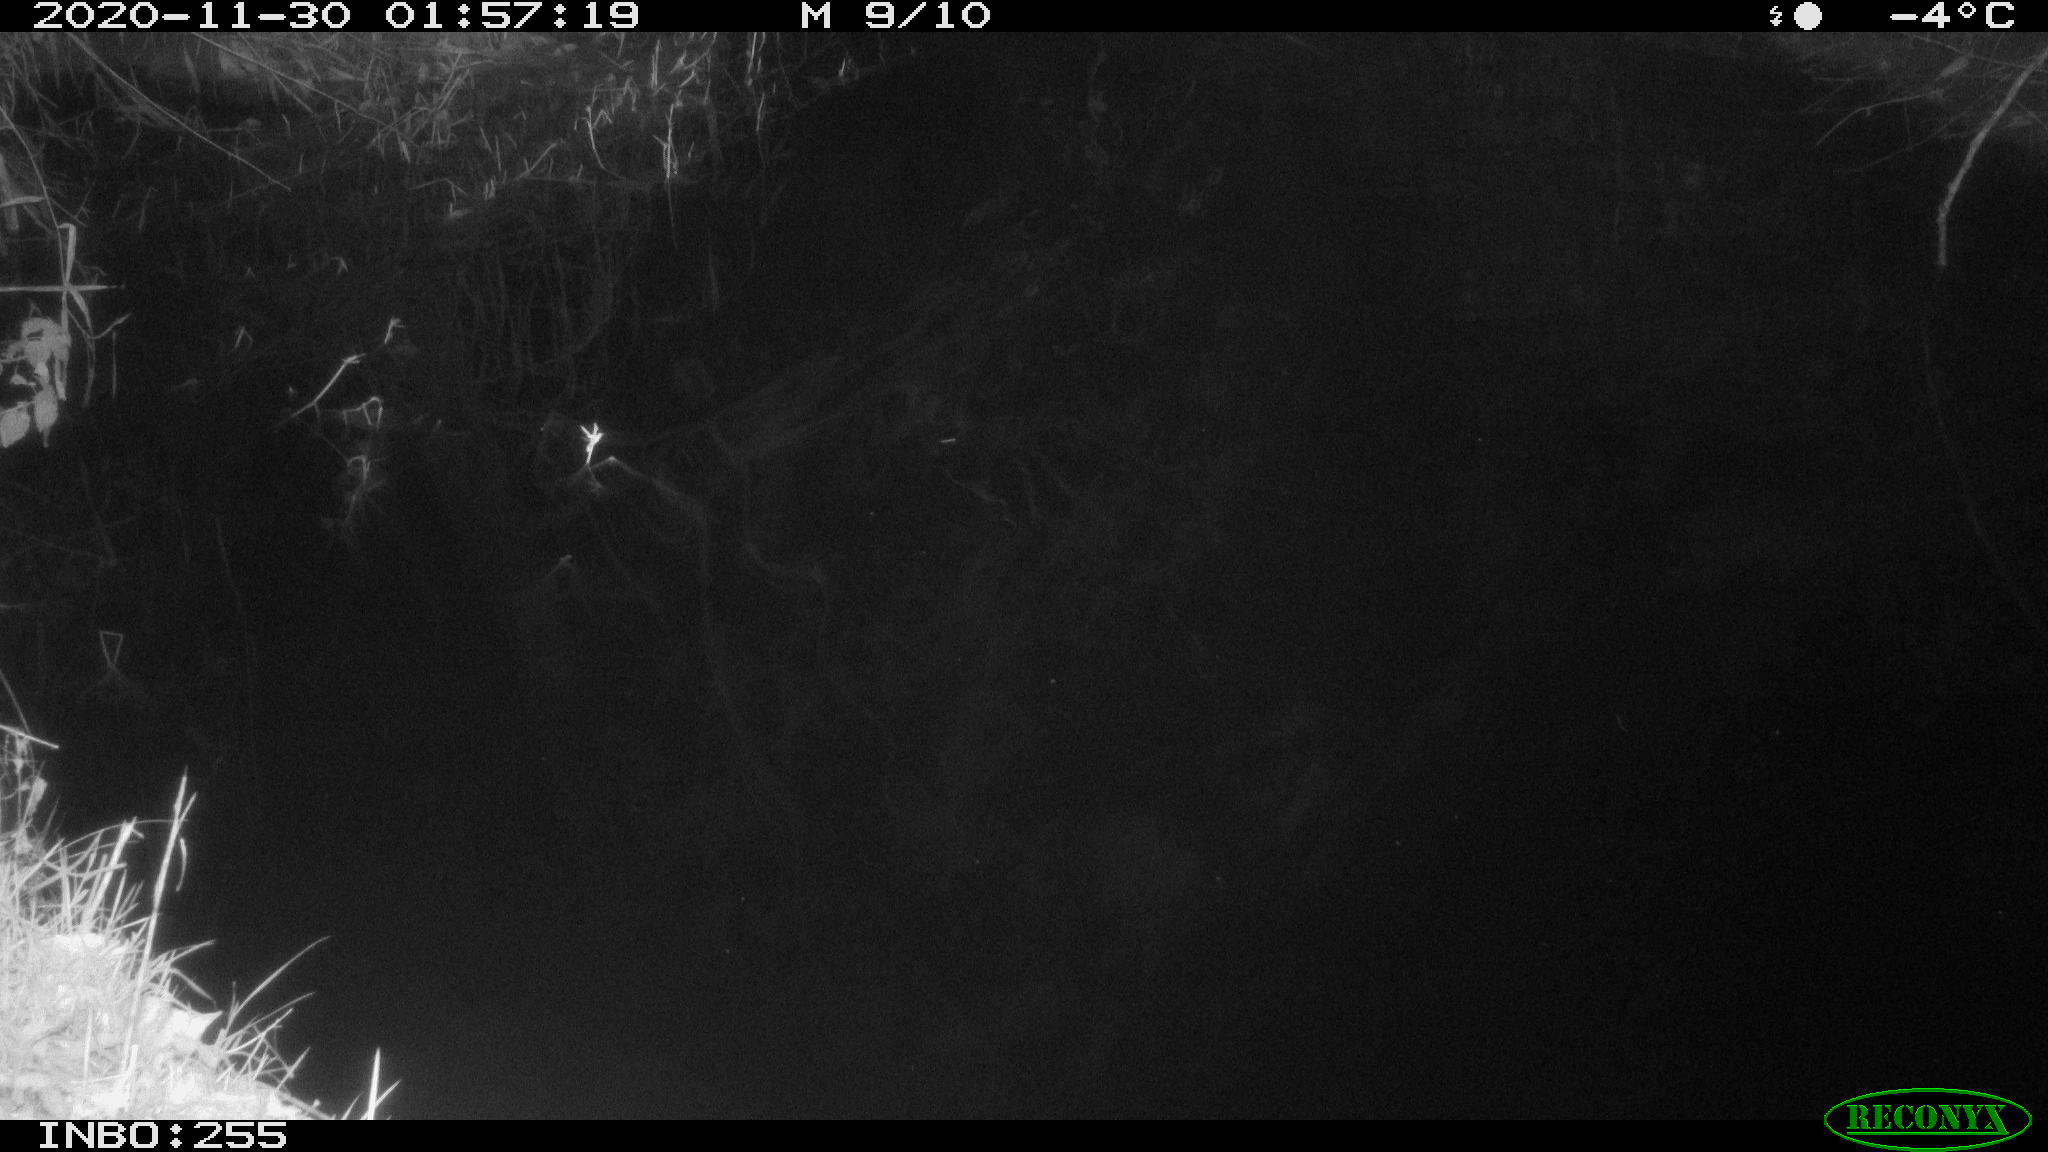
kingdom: Animalia
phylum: Chordata
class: Aves
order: Anseriformes
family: Anatidae
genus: Anas
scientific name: Anas platyrhynchos
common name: Mallard
